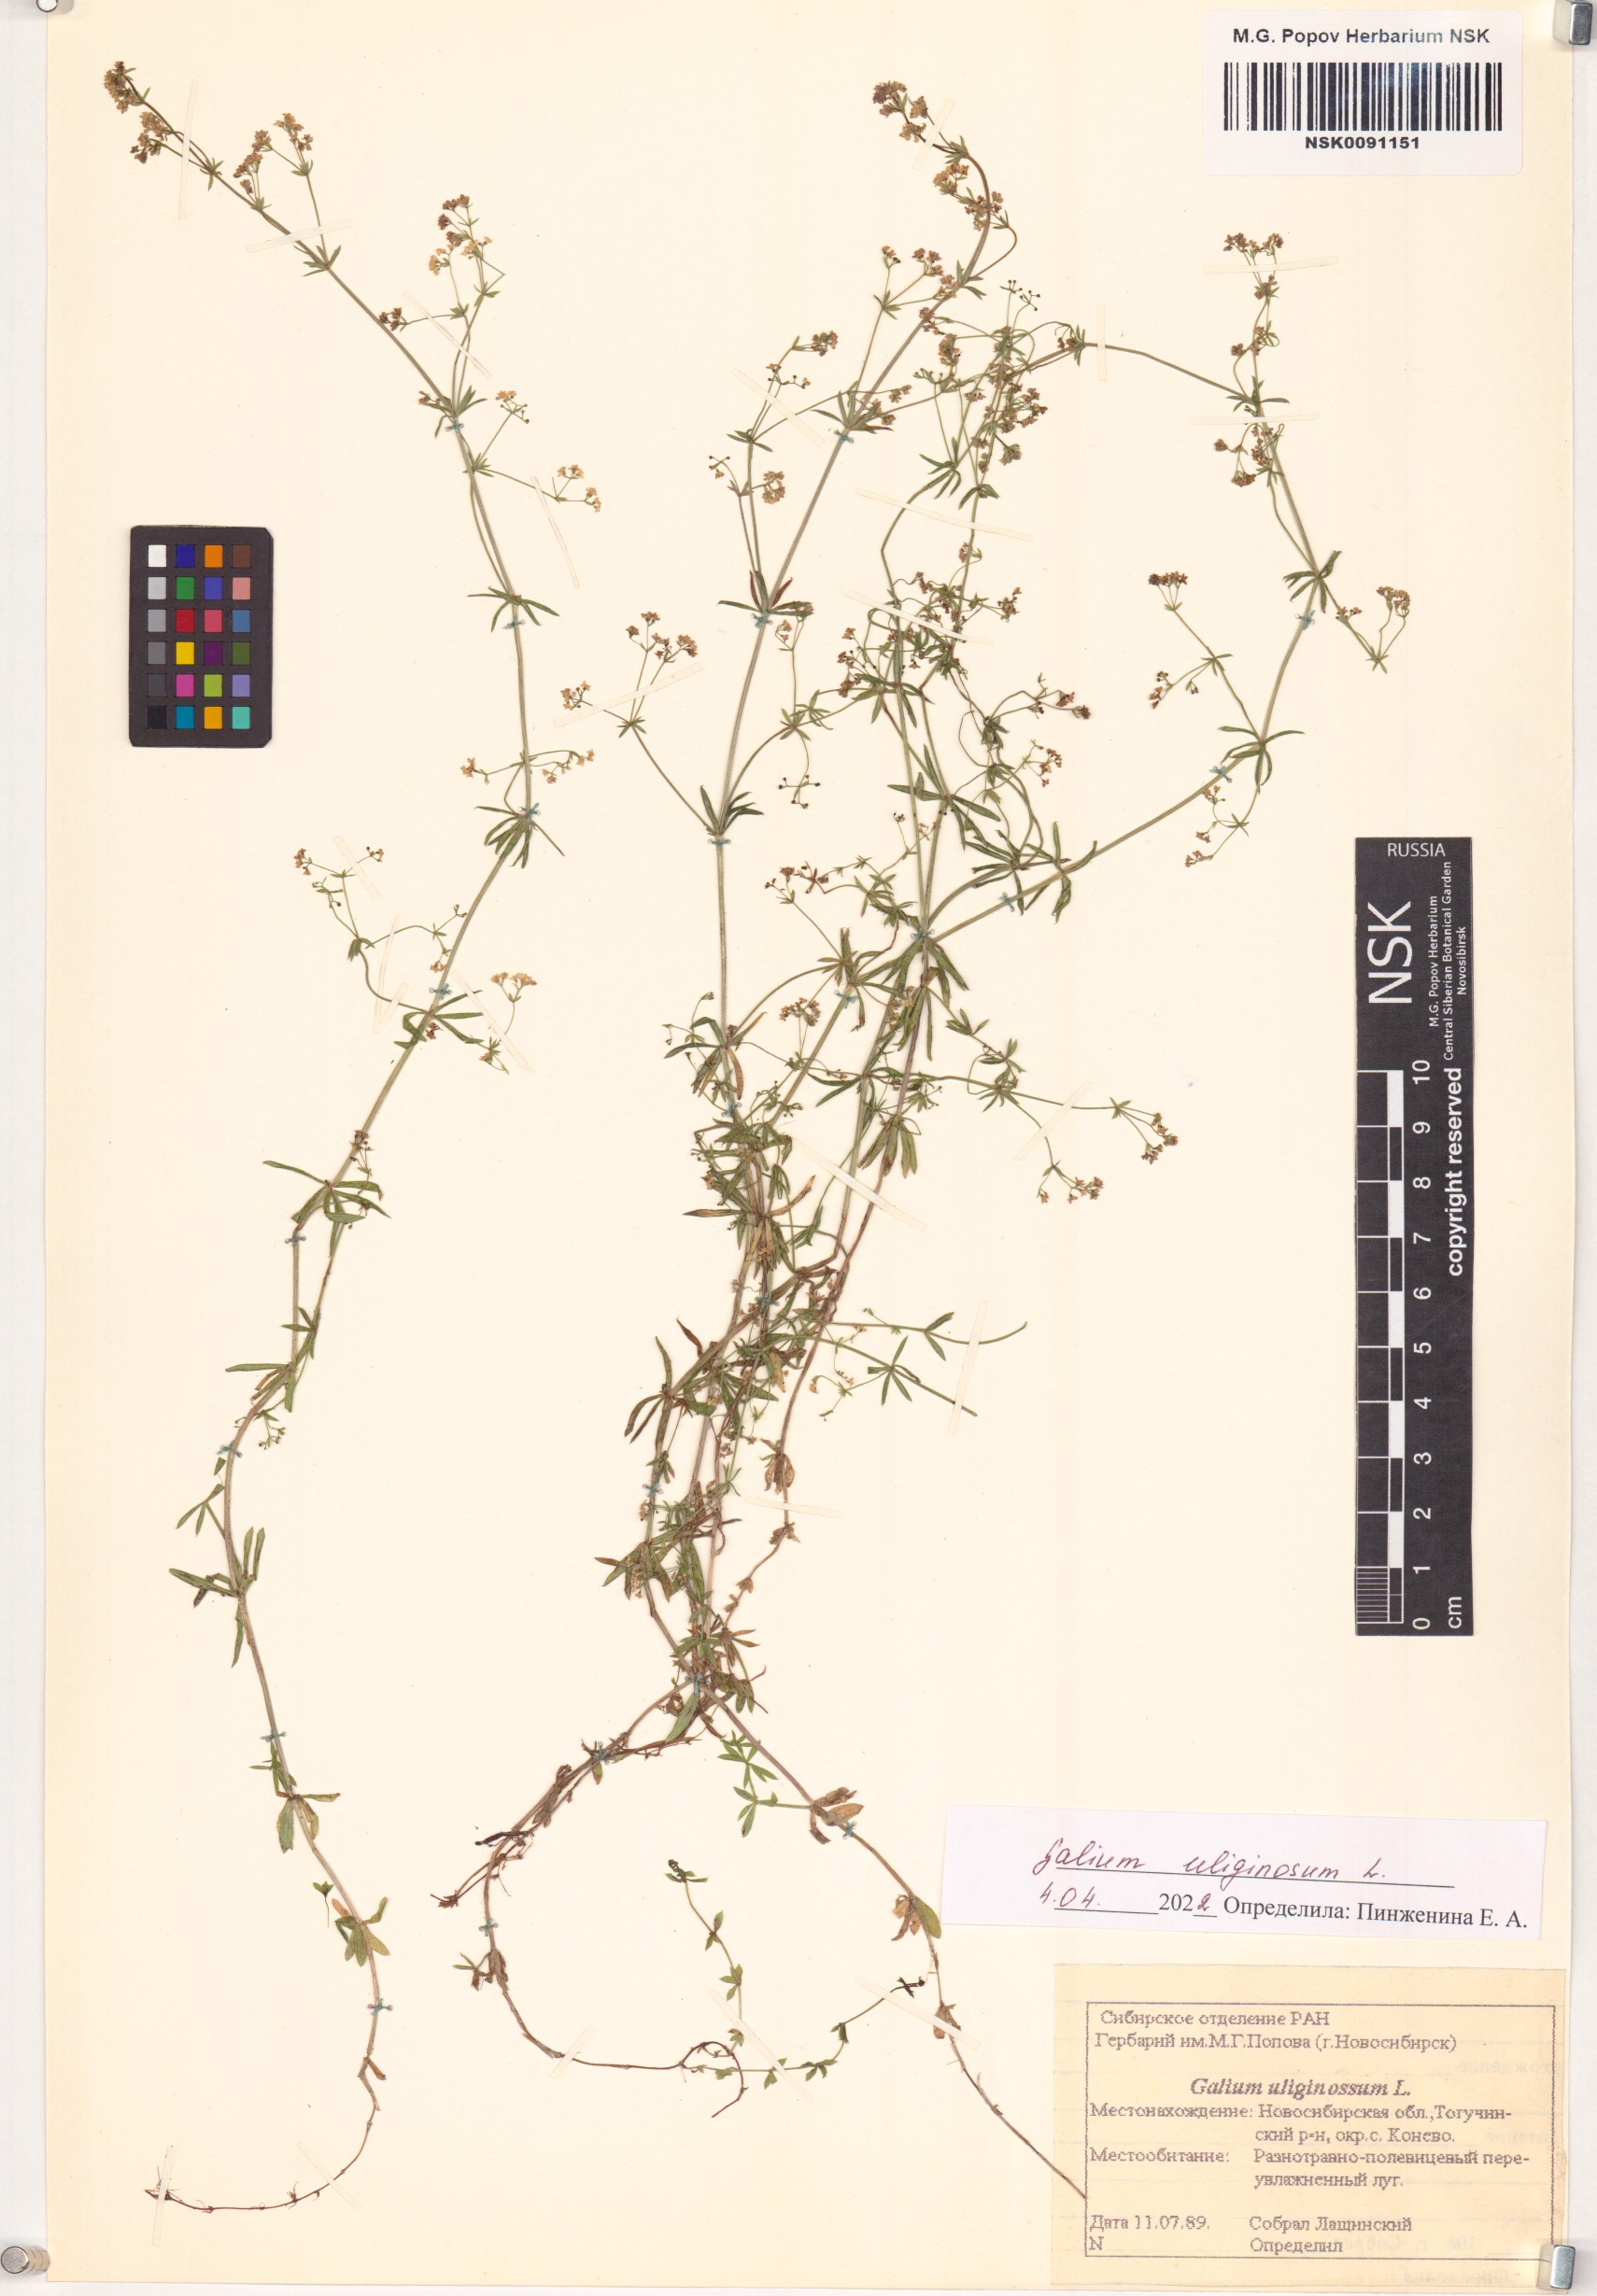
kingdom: Plantae
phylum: Tracheophyta
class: Magnoliopsida
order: Gentianales
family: Rubiaceae
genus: Galium
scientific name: Galium uliginosum
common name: Fen bedstraw
